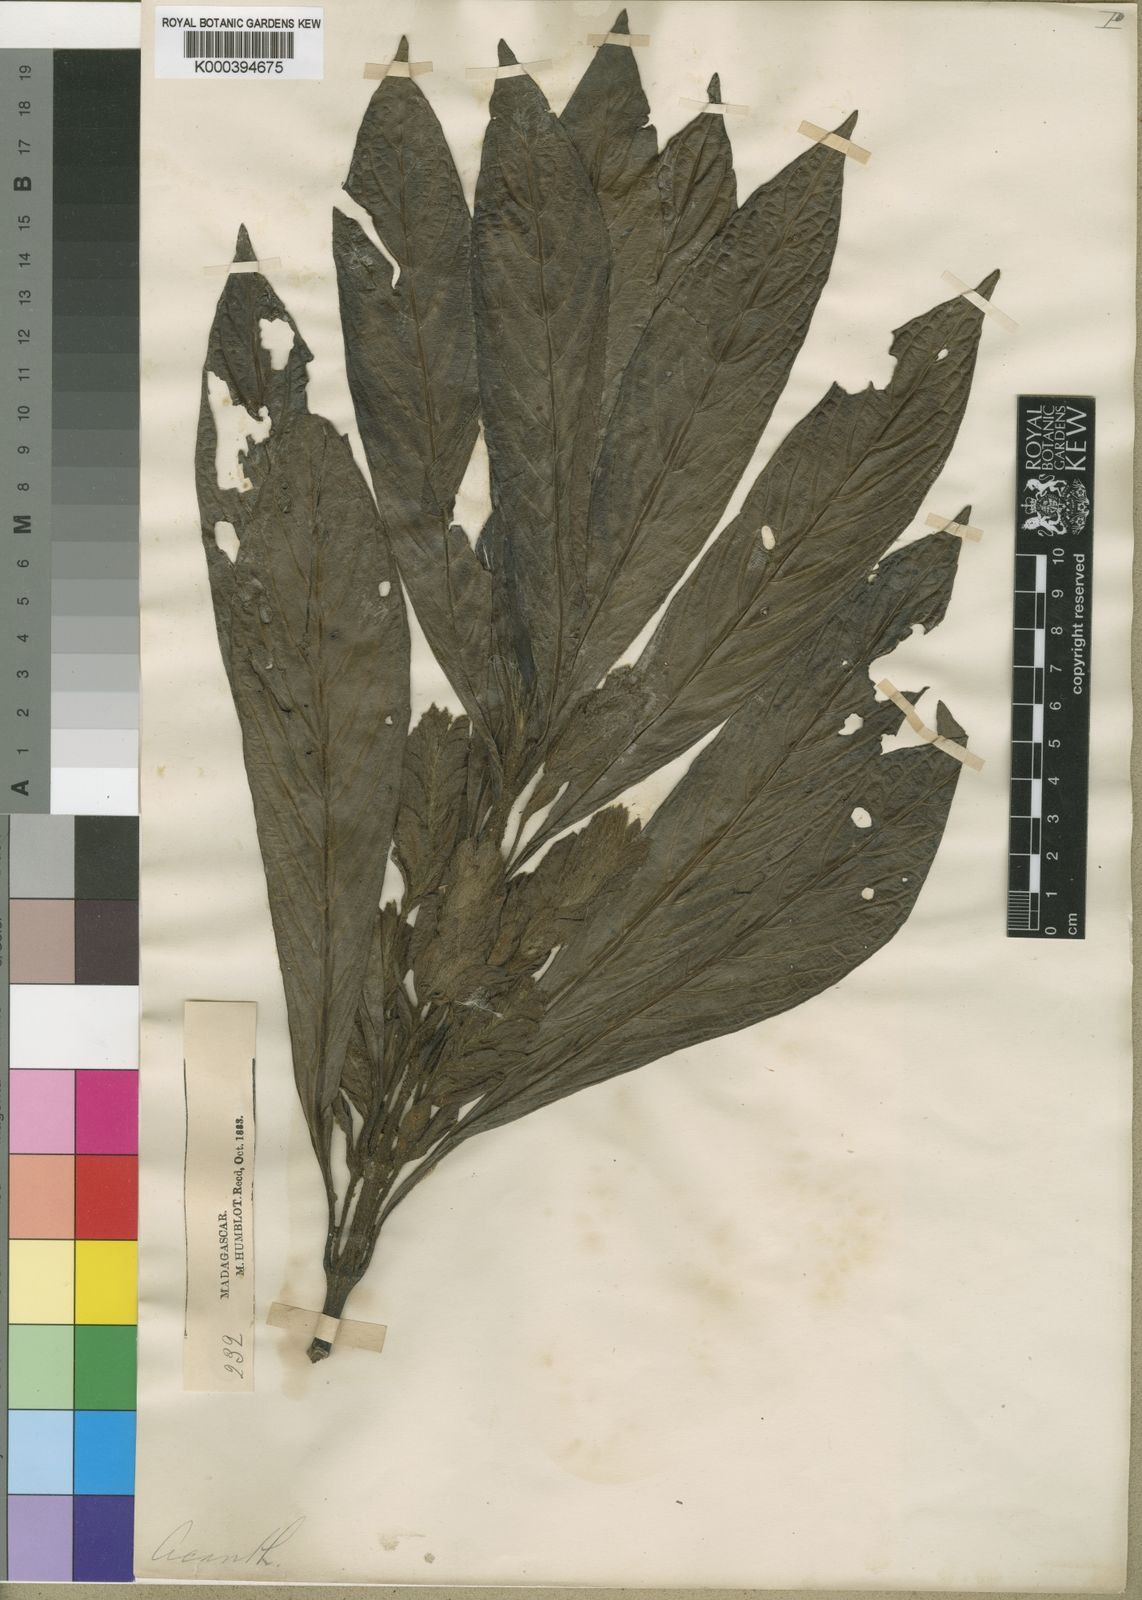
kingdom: Plantae
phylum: Tracheophyta
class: Magnoliopsida
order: Lamiales
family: Acanthaceae
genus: Podorungia
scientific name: Podorungia humblotii
